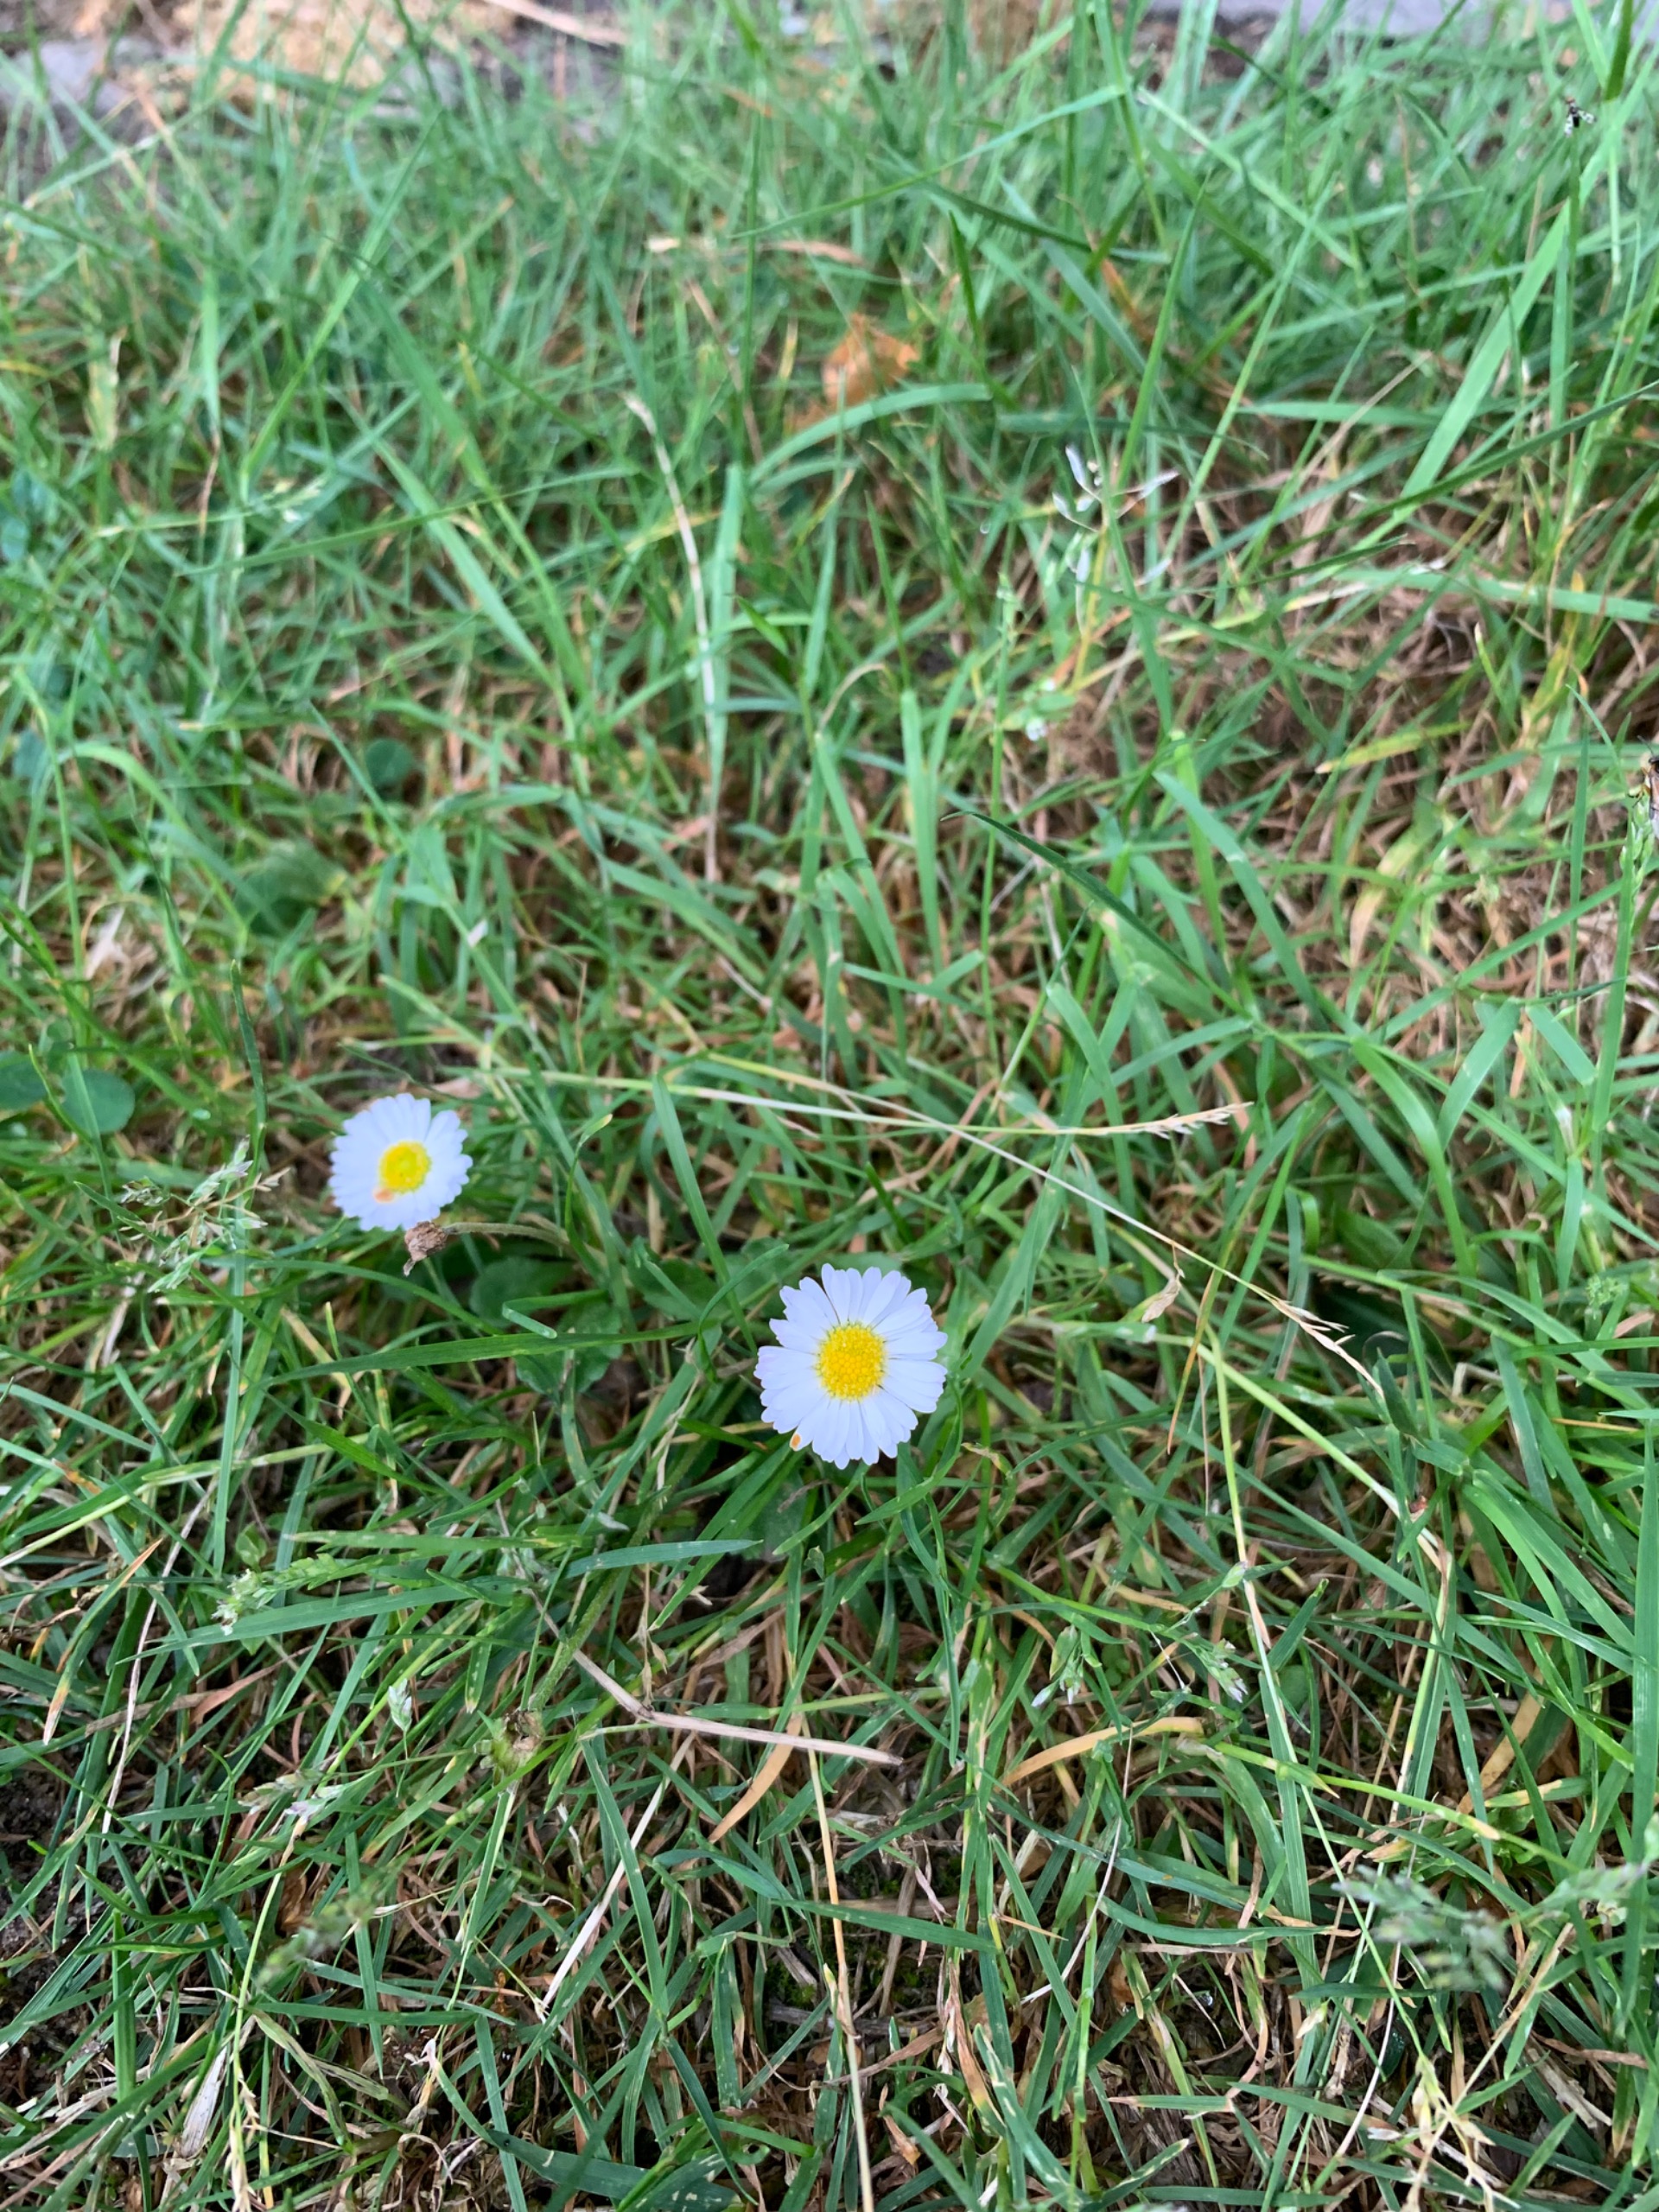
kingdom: Plantae
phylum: Tracheophyta
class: Magnoliopsida
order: Asterales
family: Asteraceae
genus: Bellis
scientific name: Bellis perennis
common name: Tusindfryd
